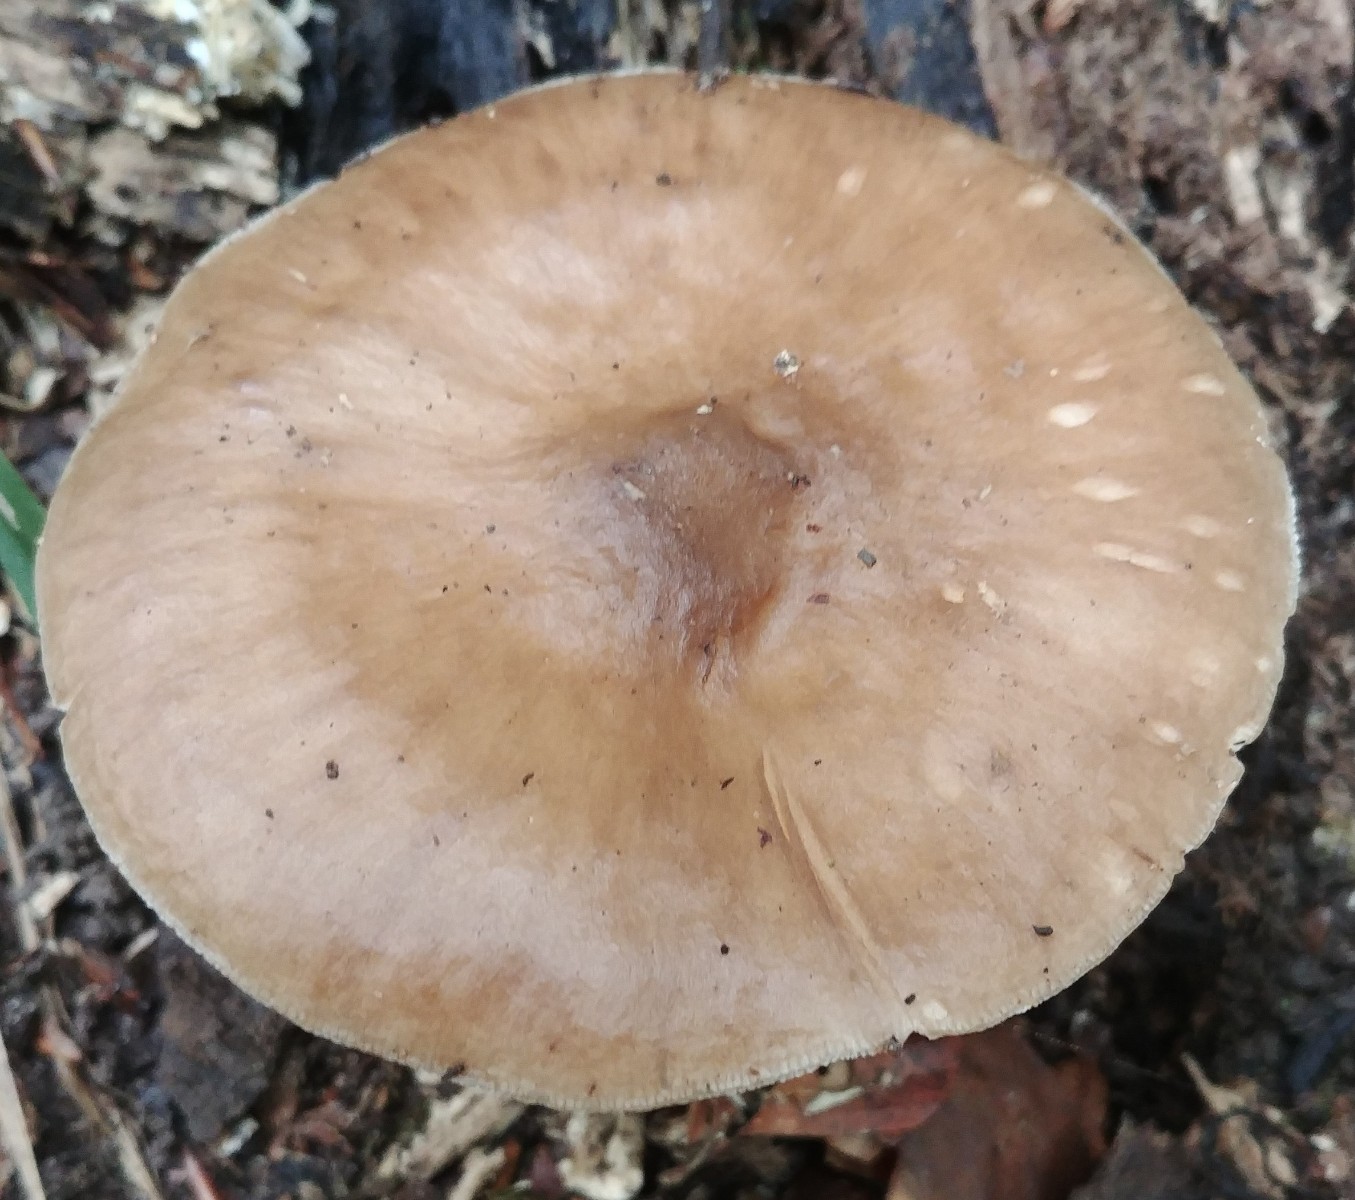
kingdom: Fungi
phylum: Basidiomycota
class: Agaricomycetes
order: Agaricales
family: Pluteaceae
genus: Pluteus
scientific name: Pluteus cervinus
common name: sodfarvet skærmhat
